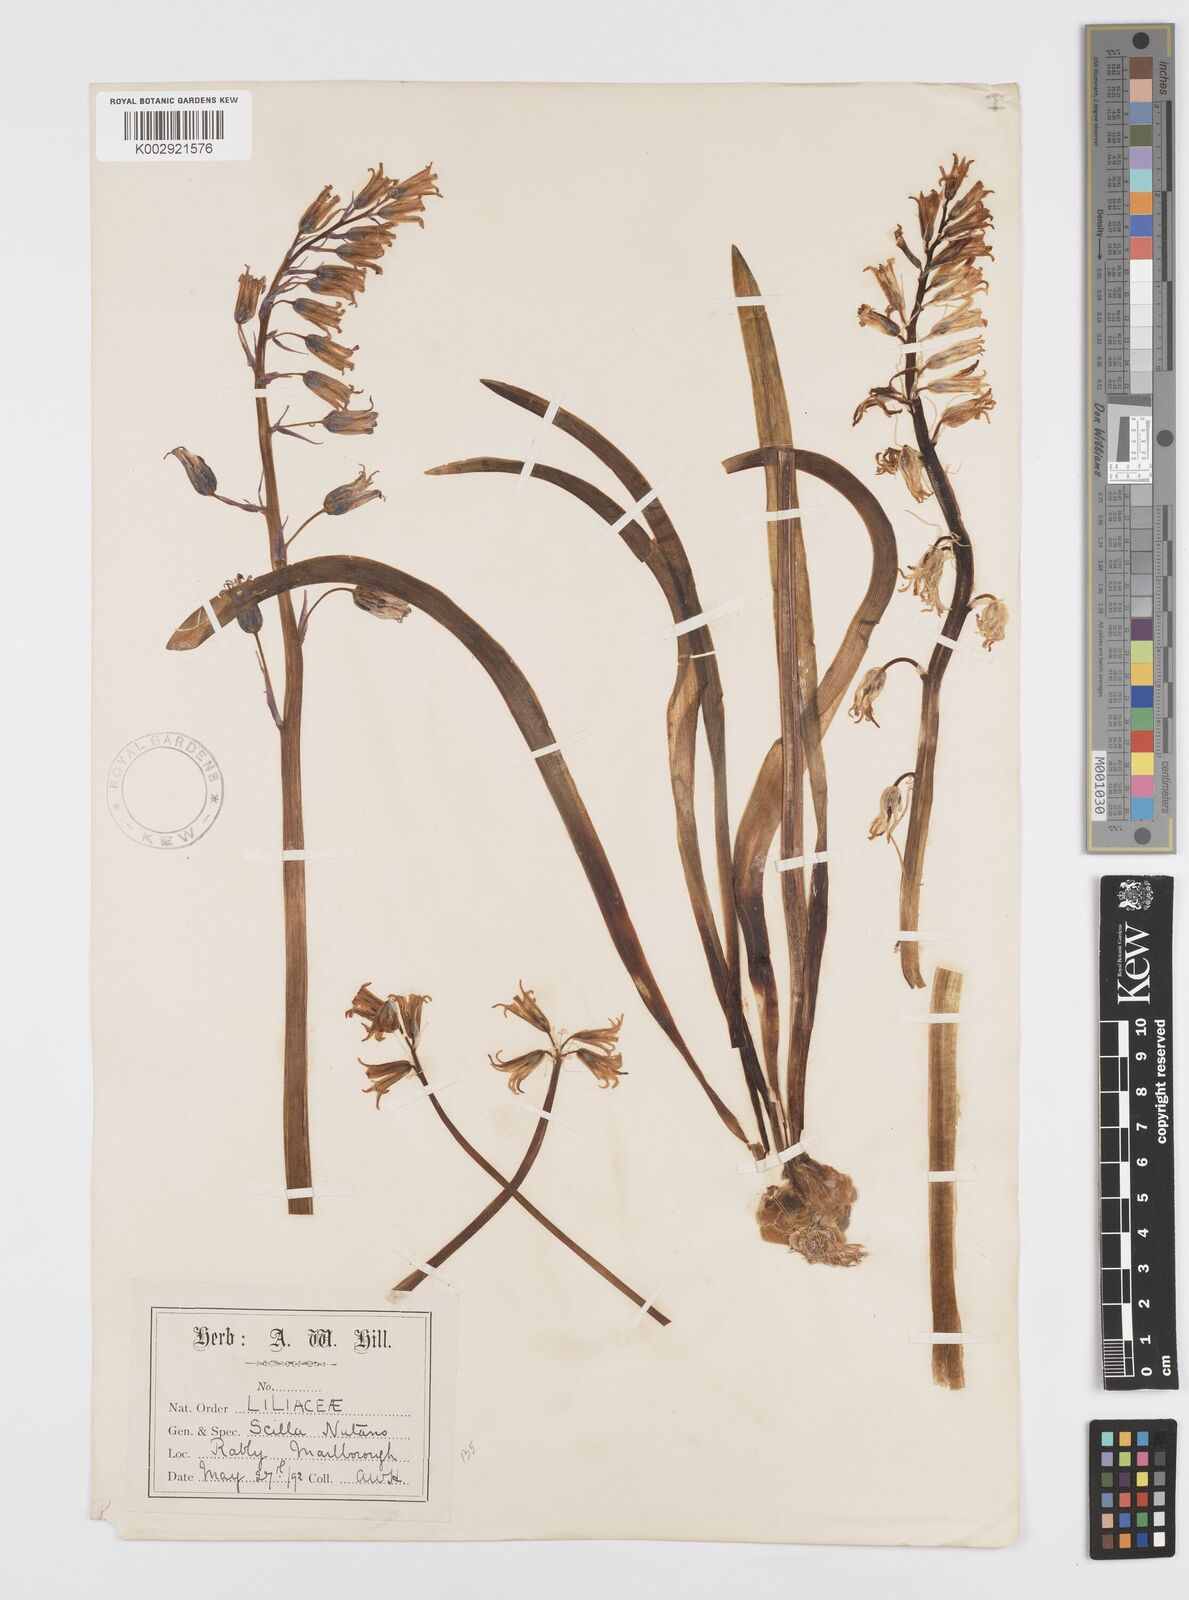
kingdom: Plantae
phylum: Tracheophyta
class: Liliopsida
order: Asparagales
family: Asparagaceae
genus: Hyacinthoides
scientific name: Hyacinthoides non-scripta
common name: Bluebell
